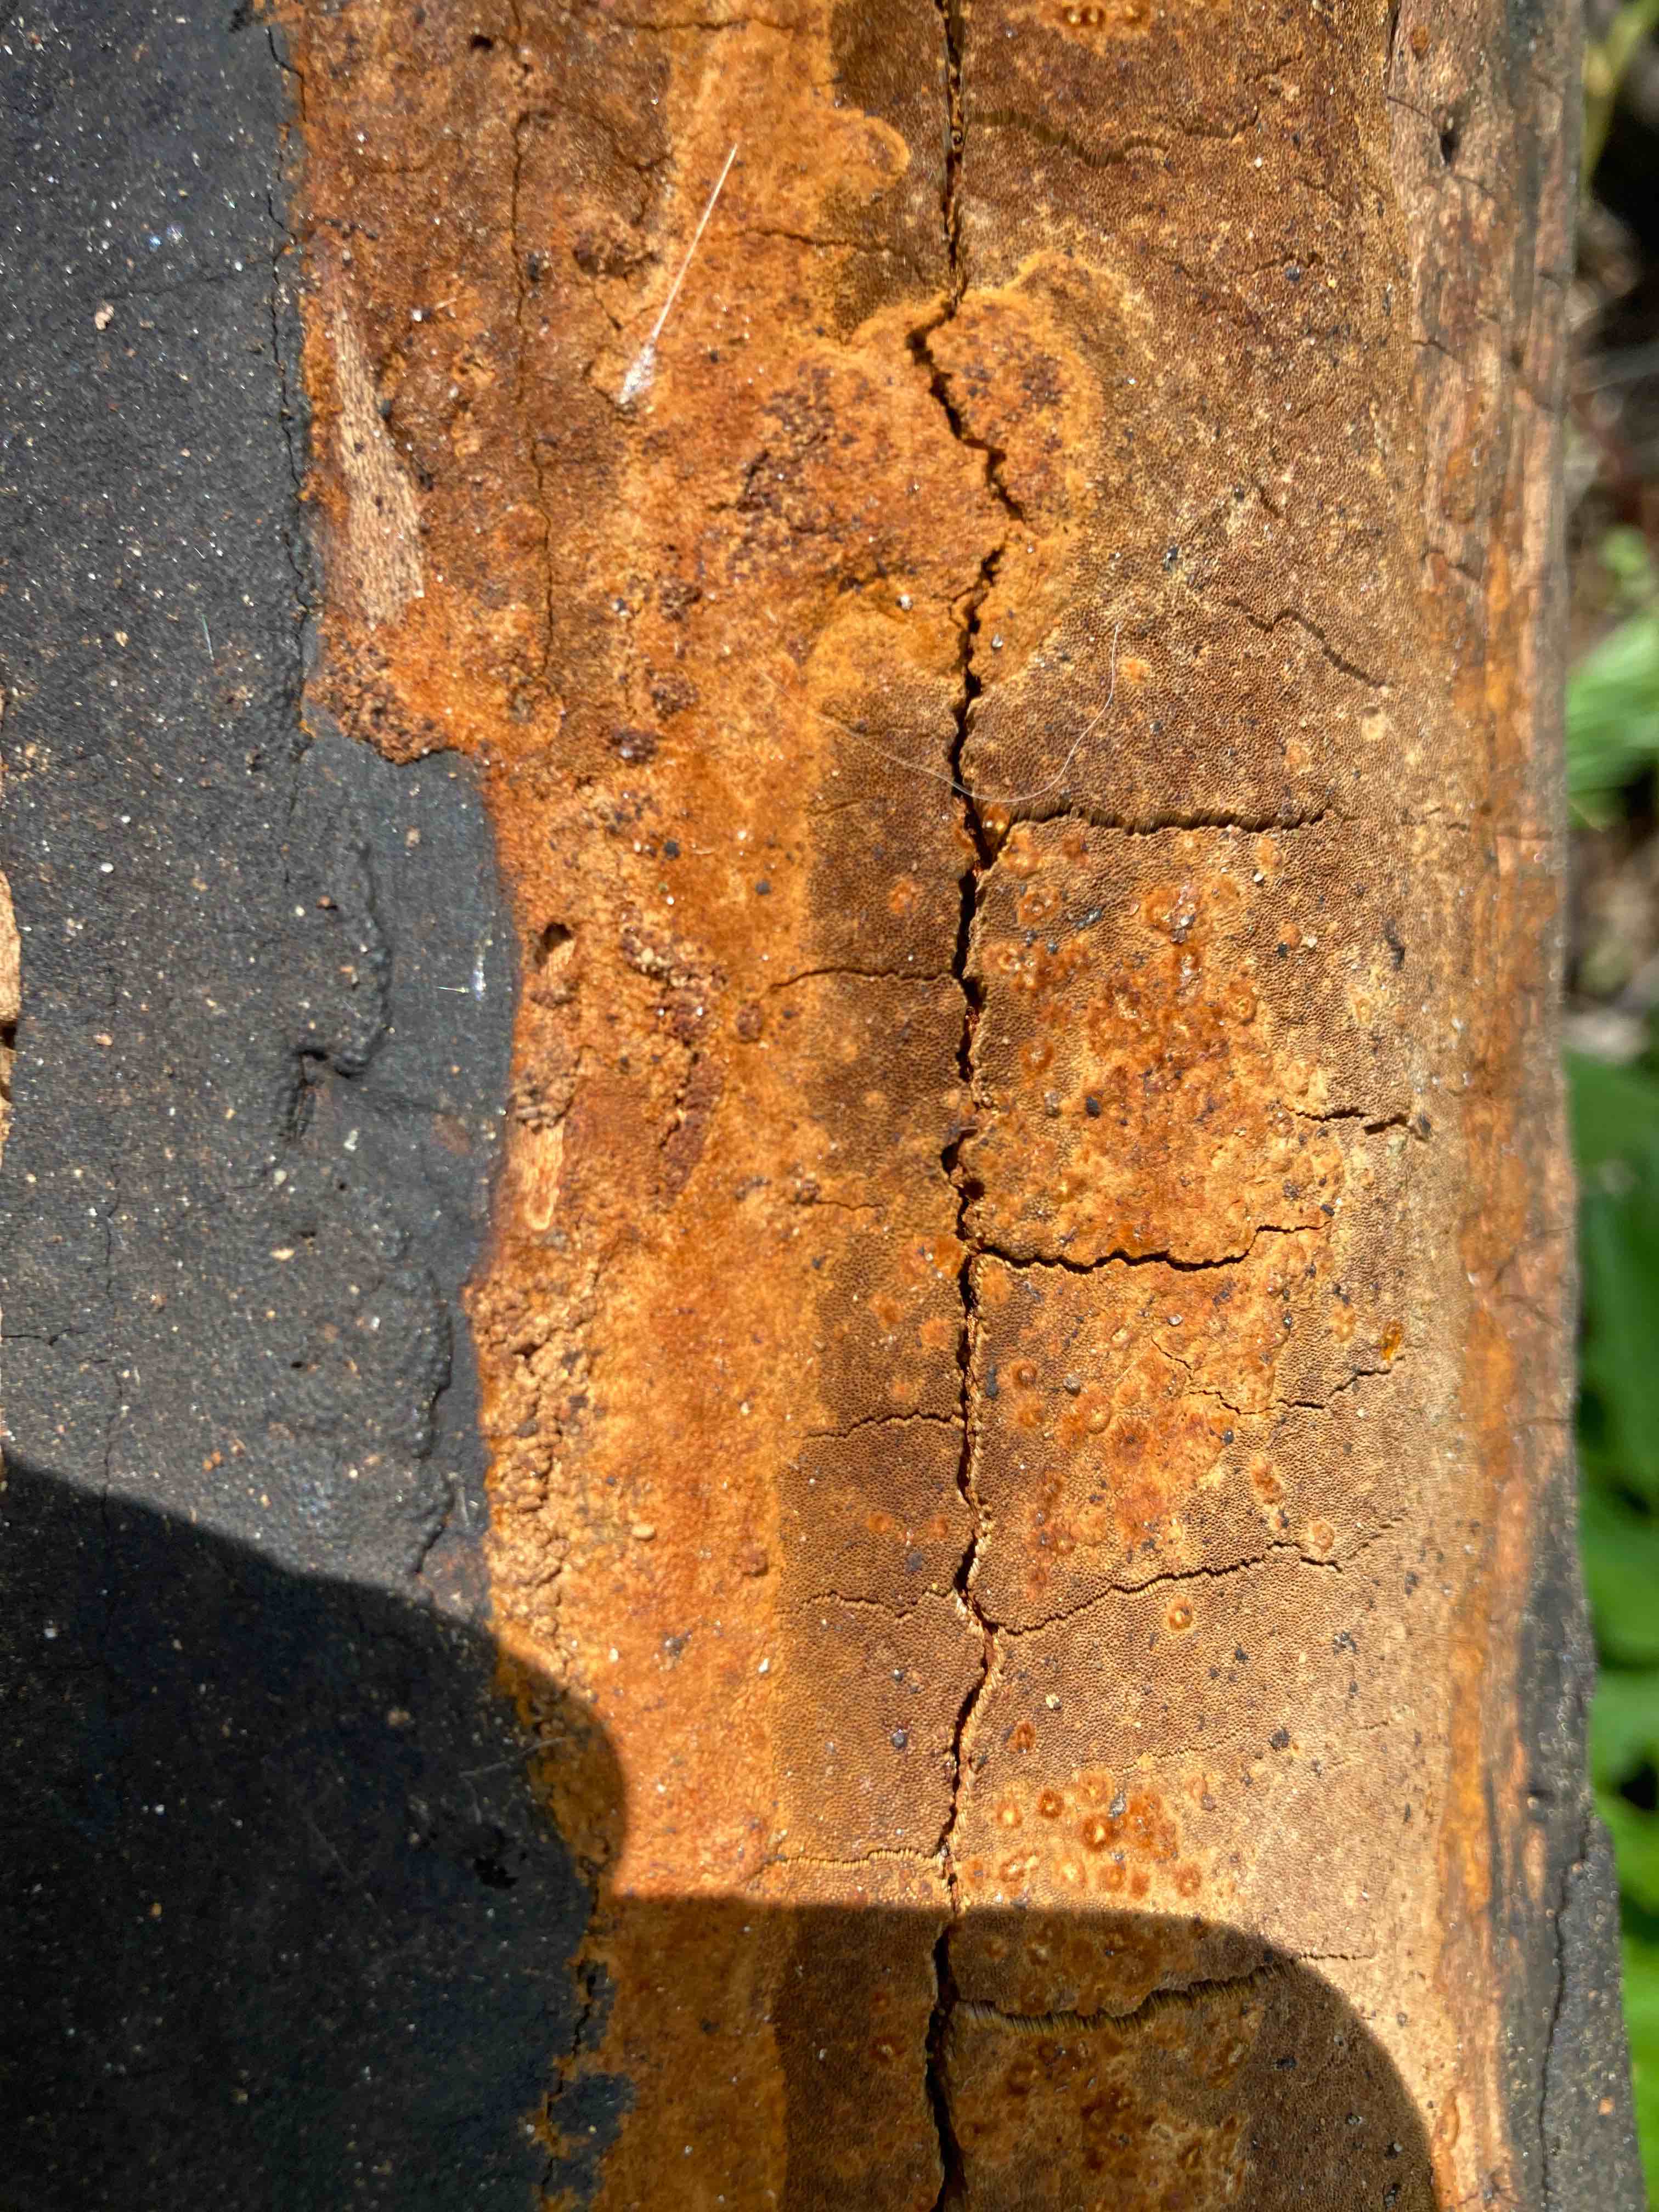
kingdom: Fungi
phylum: Basidiomycota
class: Agaricomycetes
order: Hymenochaetales
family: Hymenochaetaceae
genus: Fuscoporia
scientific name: Fuscoporia ferrea
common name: skorpe-ildporesvamp
